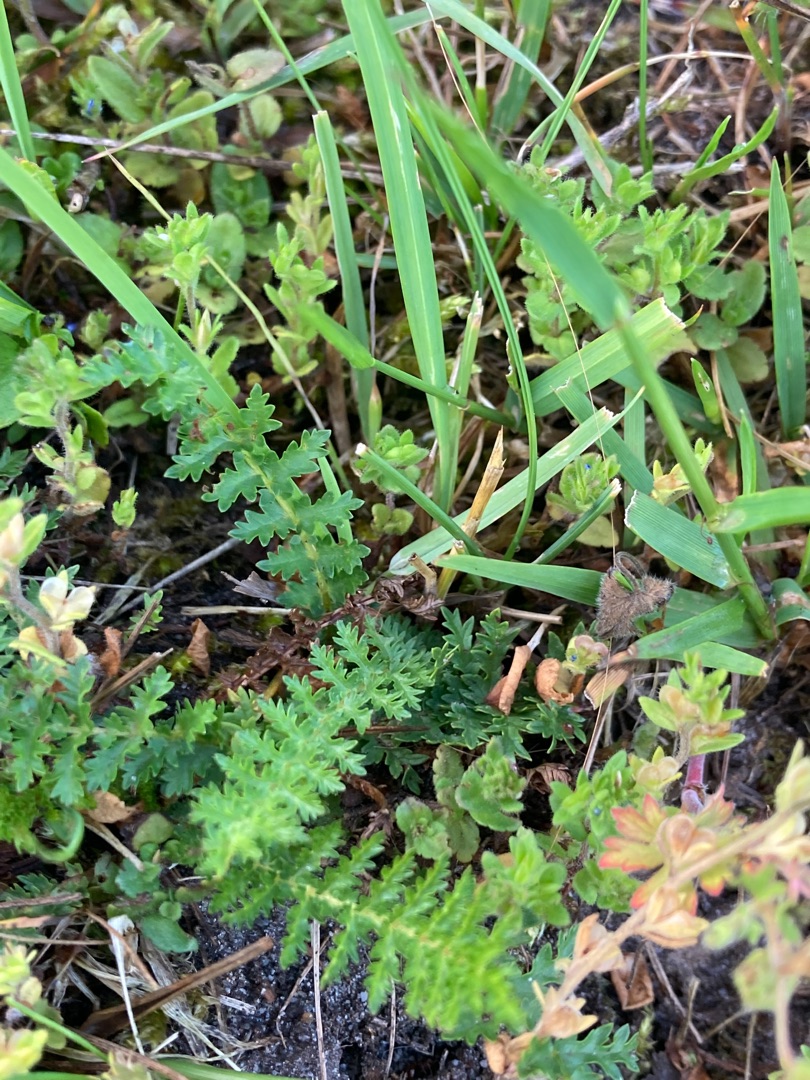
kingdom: Plantae
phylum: Tracheophyta
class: Magnoliopsida
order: Rosales
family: Rosaceae
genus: Filipendula
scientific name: Filipendula vulgaris
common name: Knoldet mjødurt
